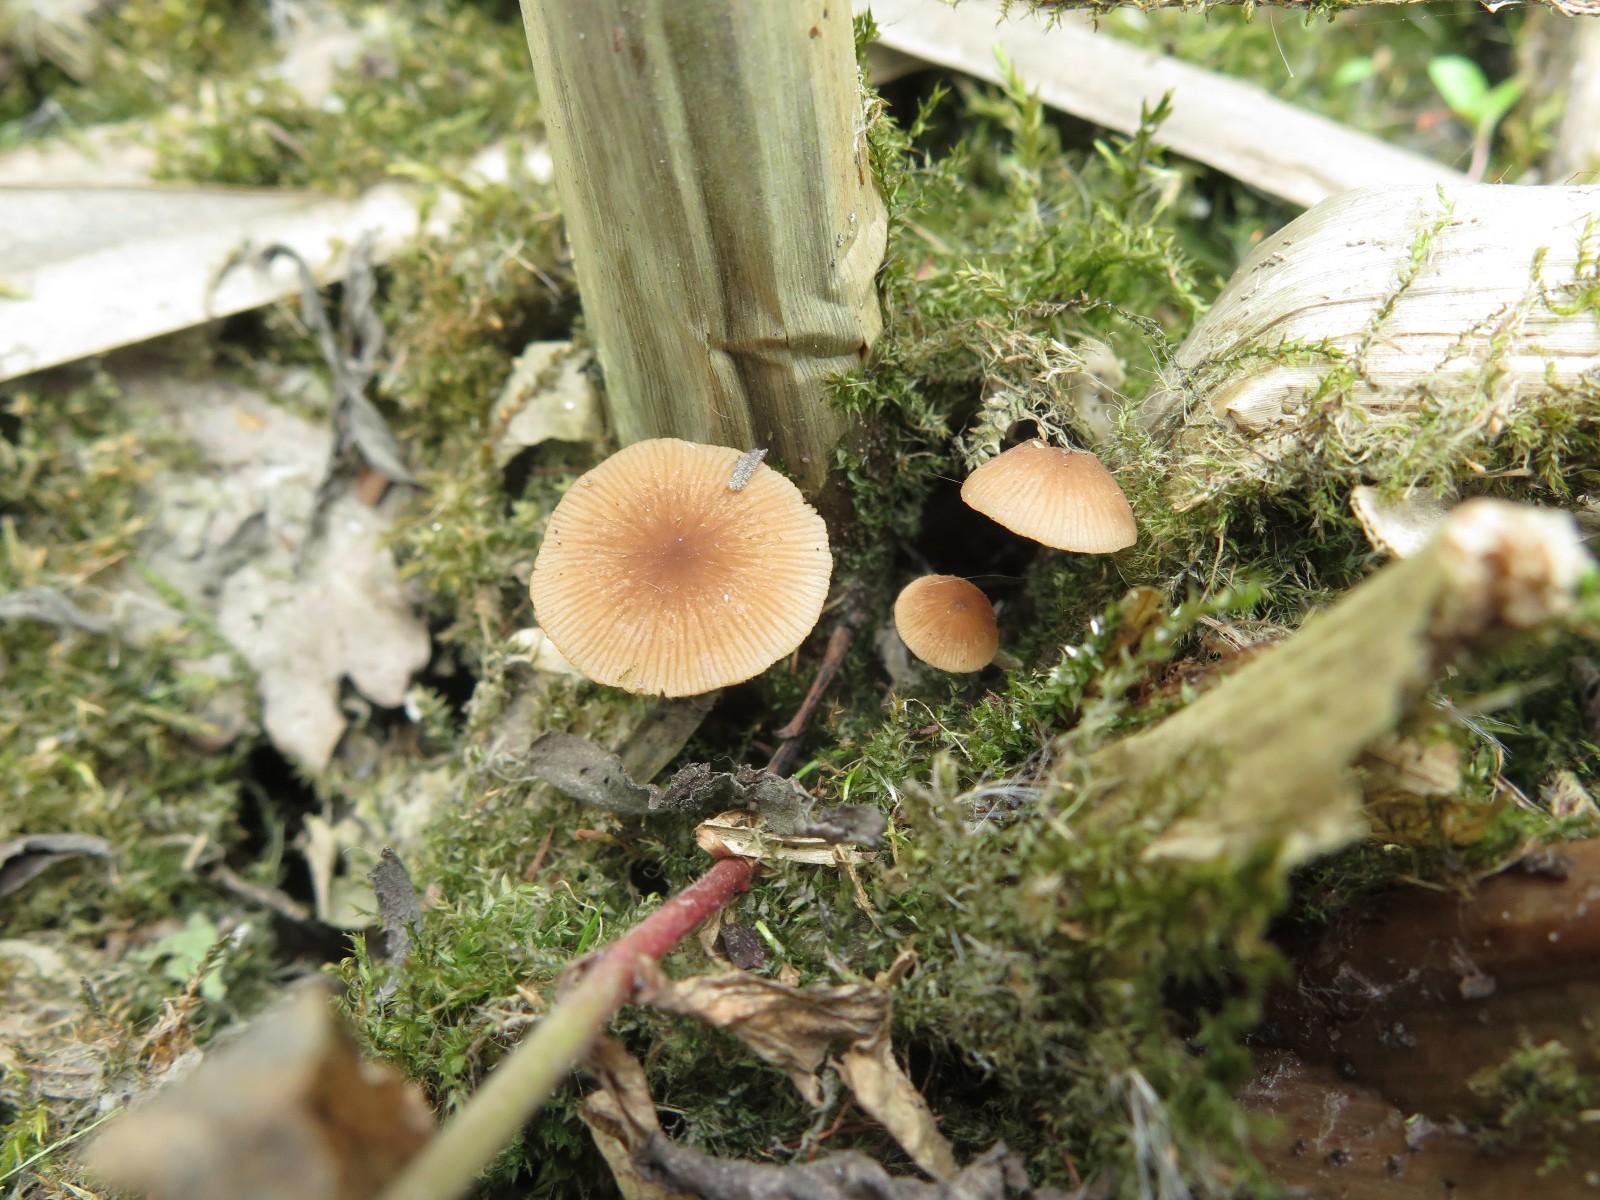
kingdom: Fungi
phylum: Basidiomycota
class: Agaricomycetes
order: Agaricales
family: Psathyrellaceae
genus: Candolleomyces
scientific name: Candolleomyces typhae
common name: dunhammer-mørkhat
